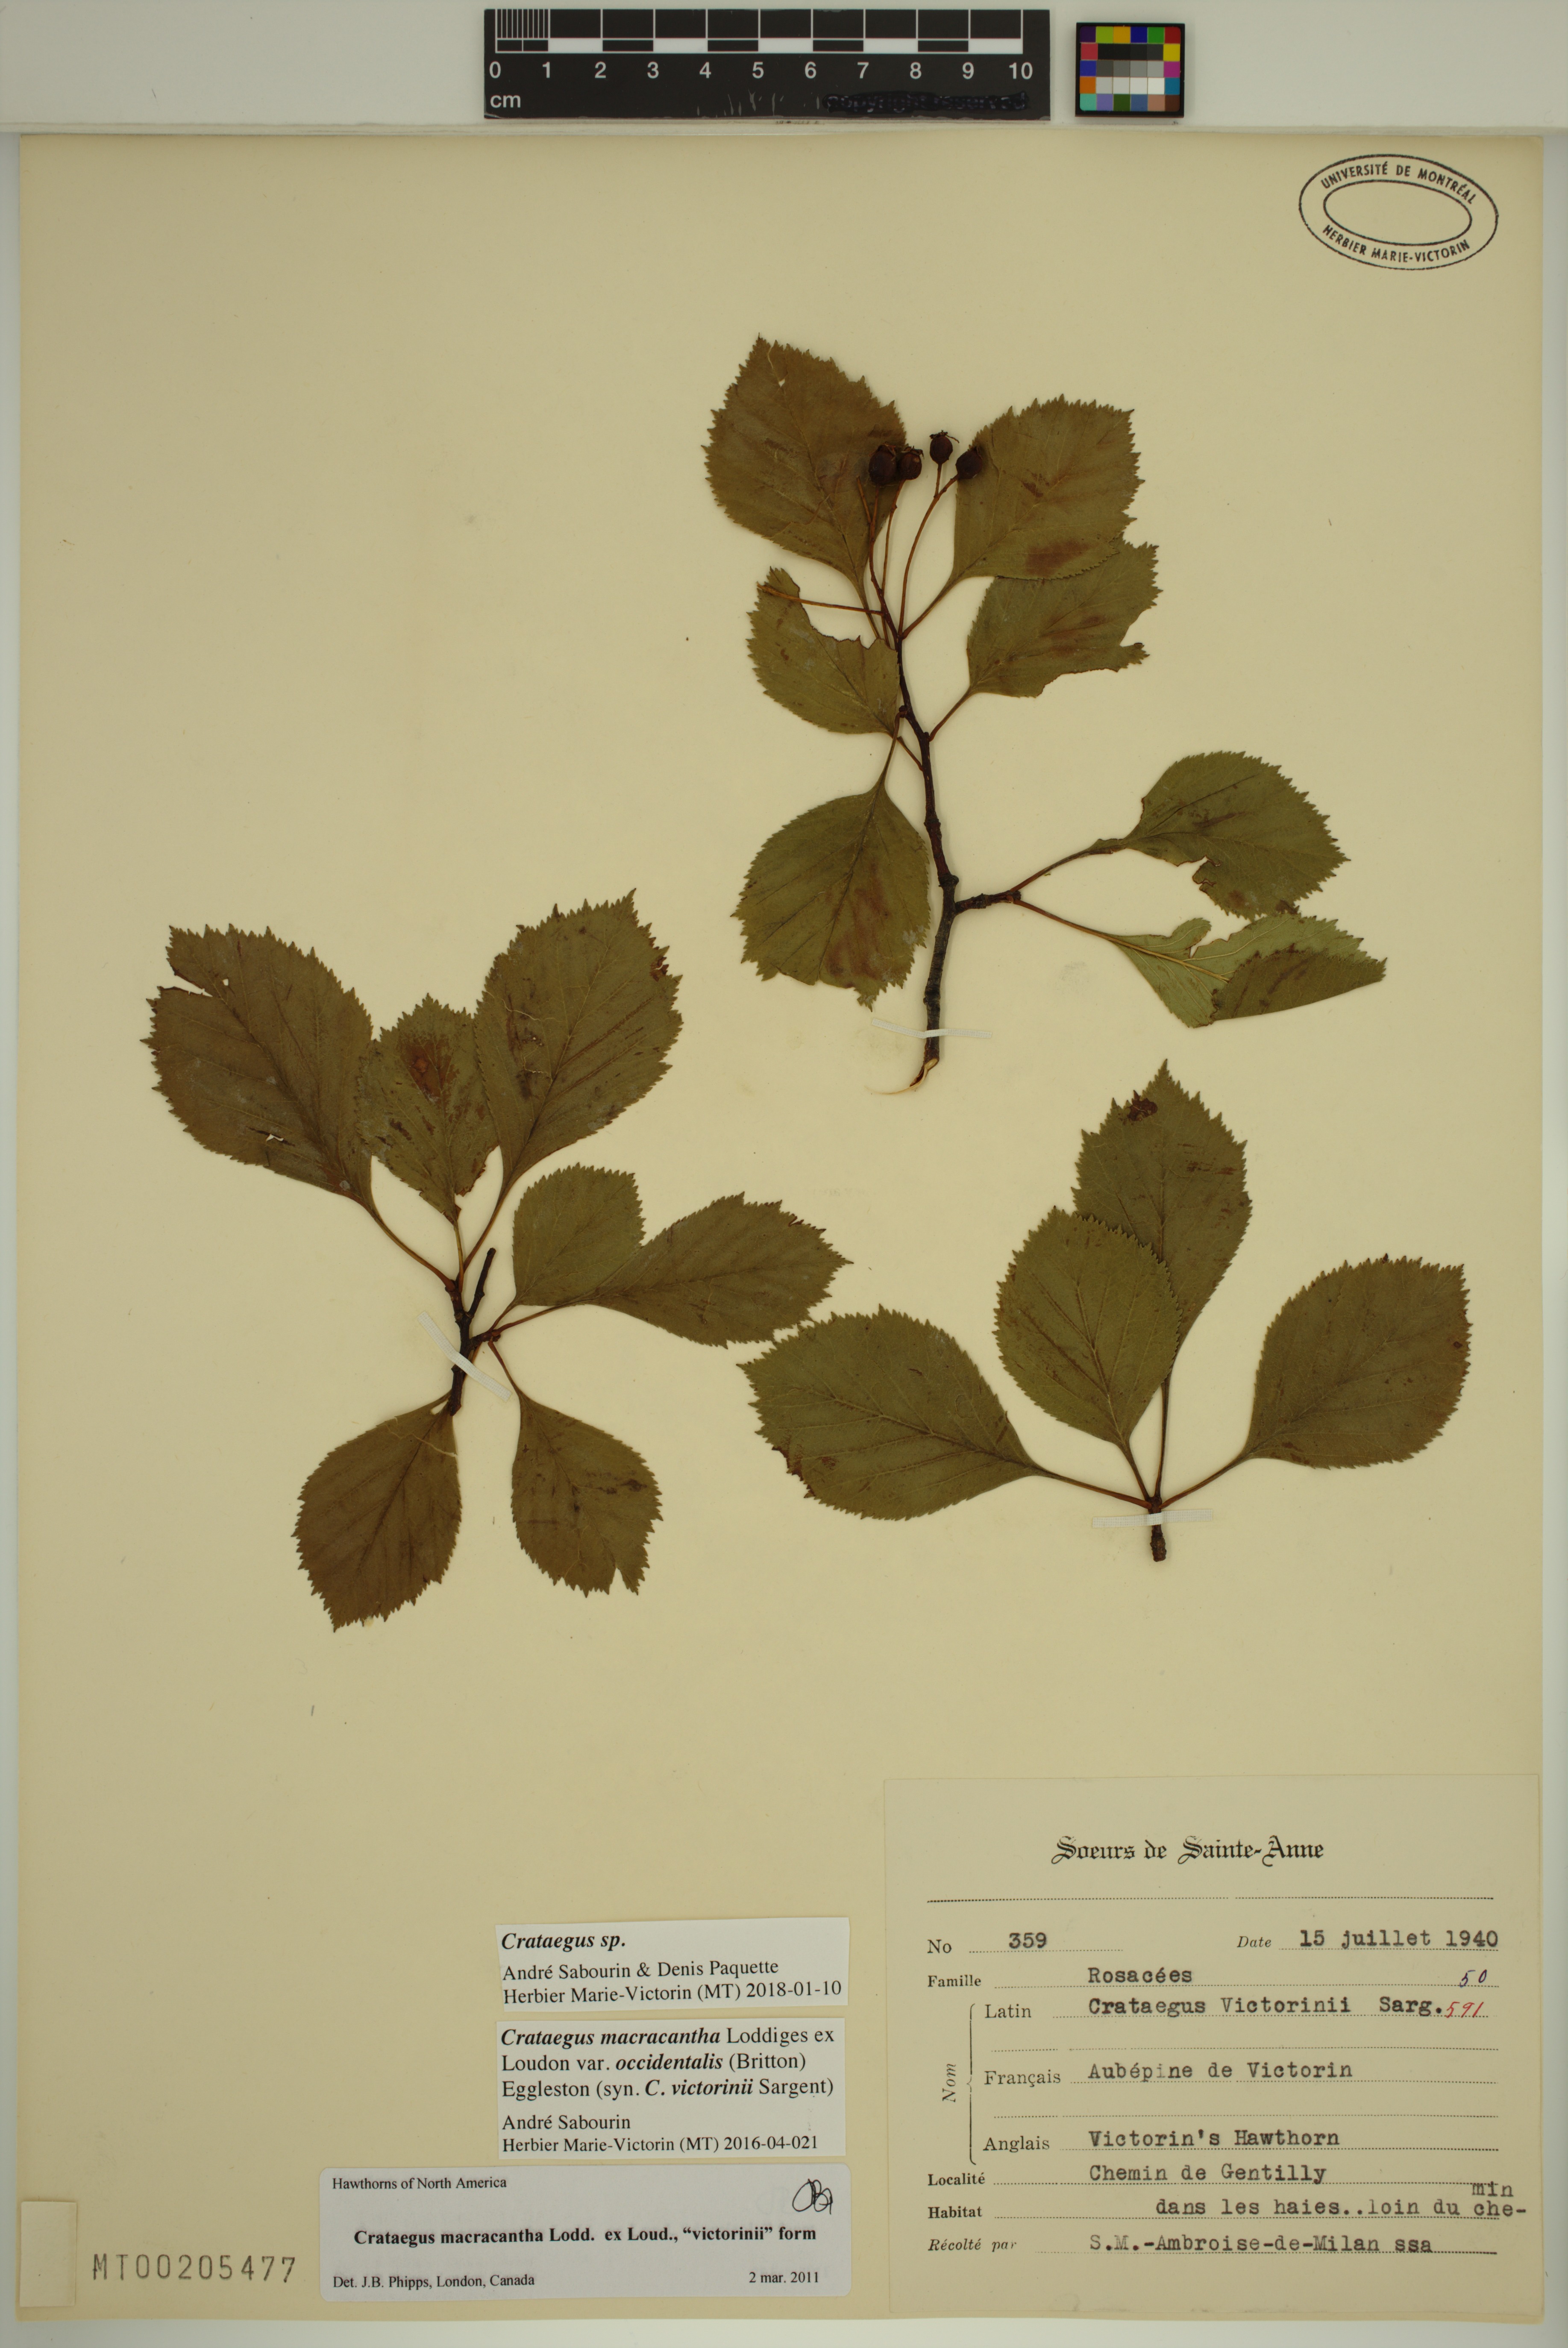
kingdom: Plantae
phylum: Tracheophyta
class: Magnoliopsida
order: Rosales
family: Rosaceae
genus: Crataegus
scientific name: Crataegus macracantha
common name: Large-thorn hawthorn
